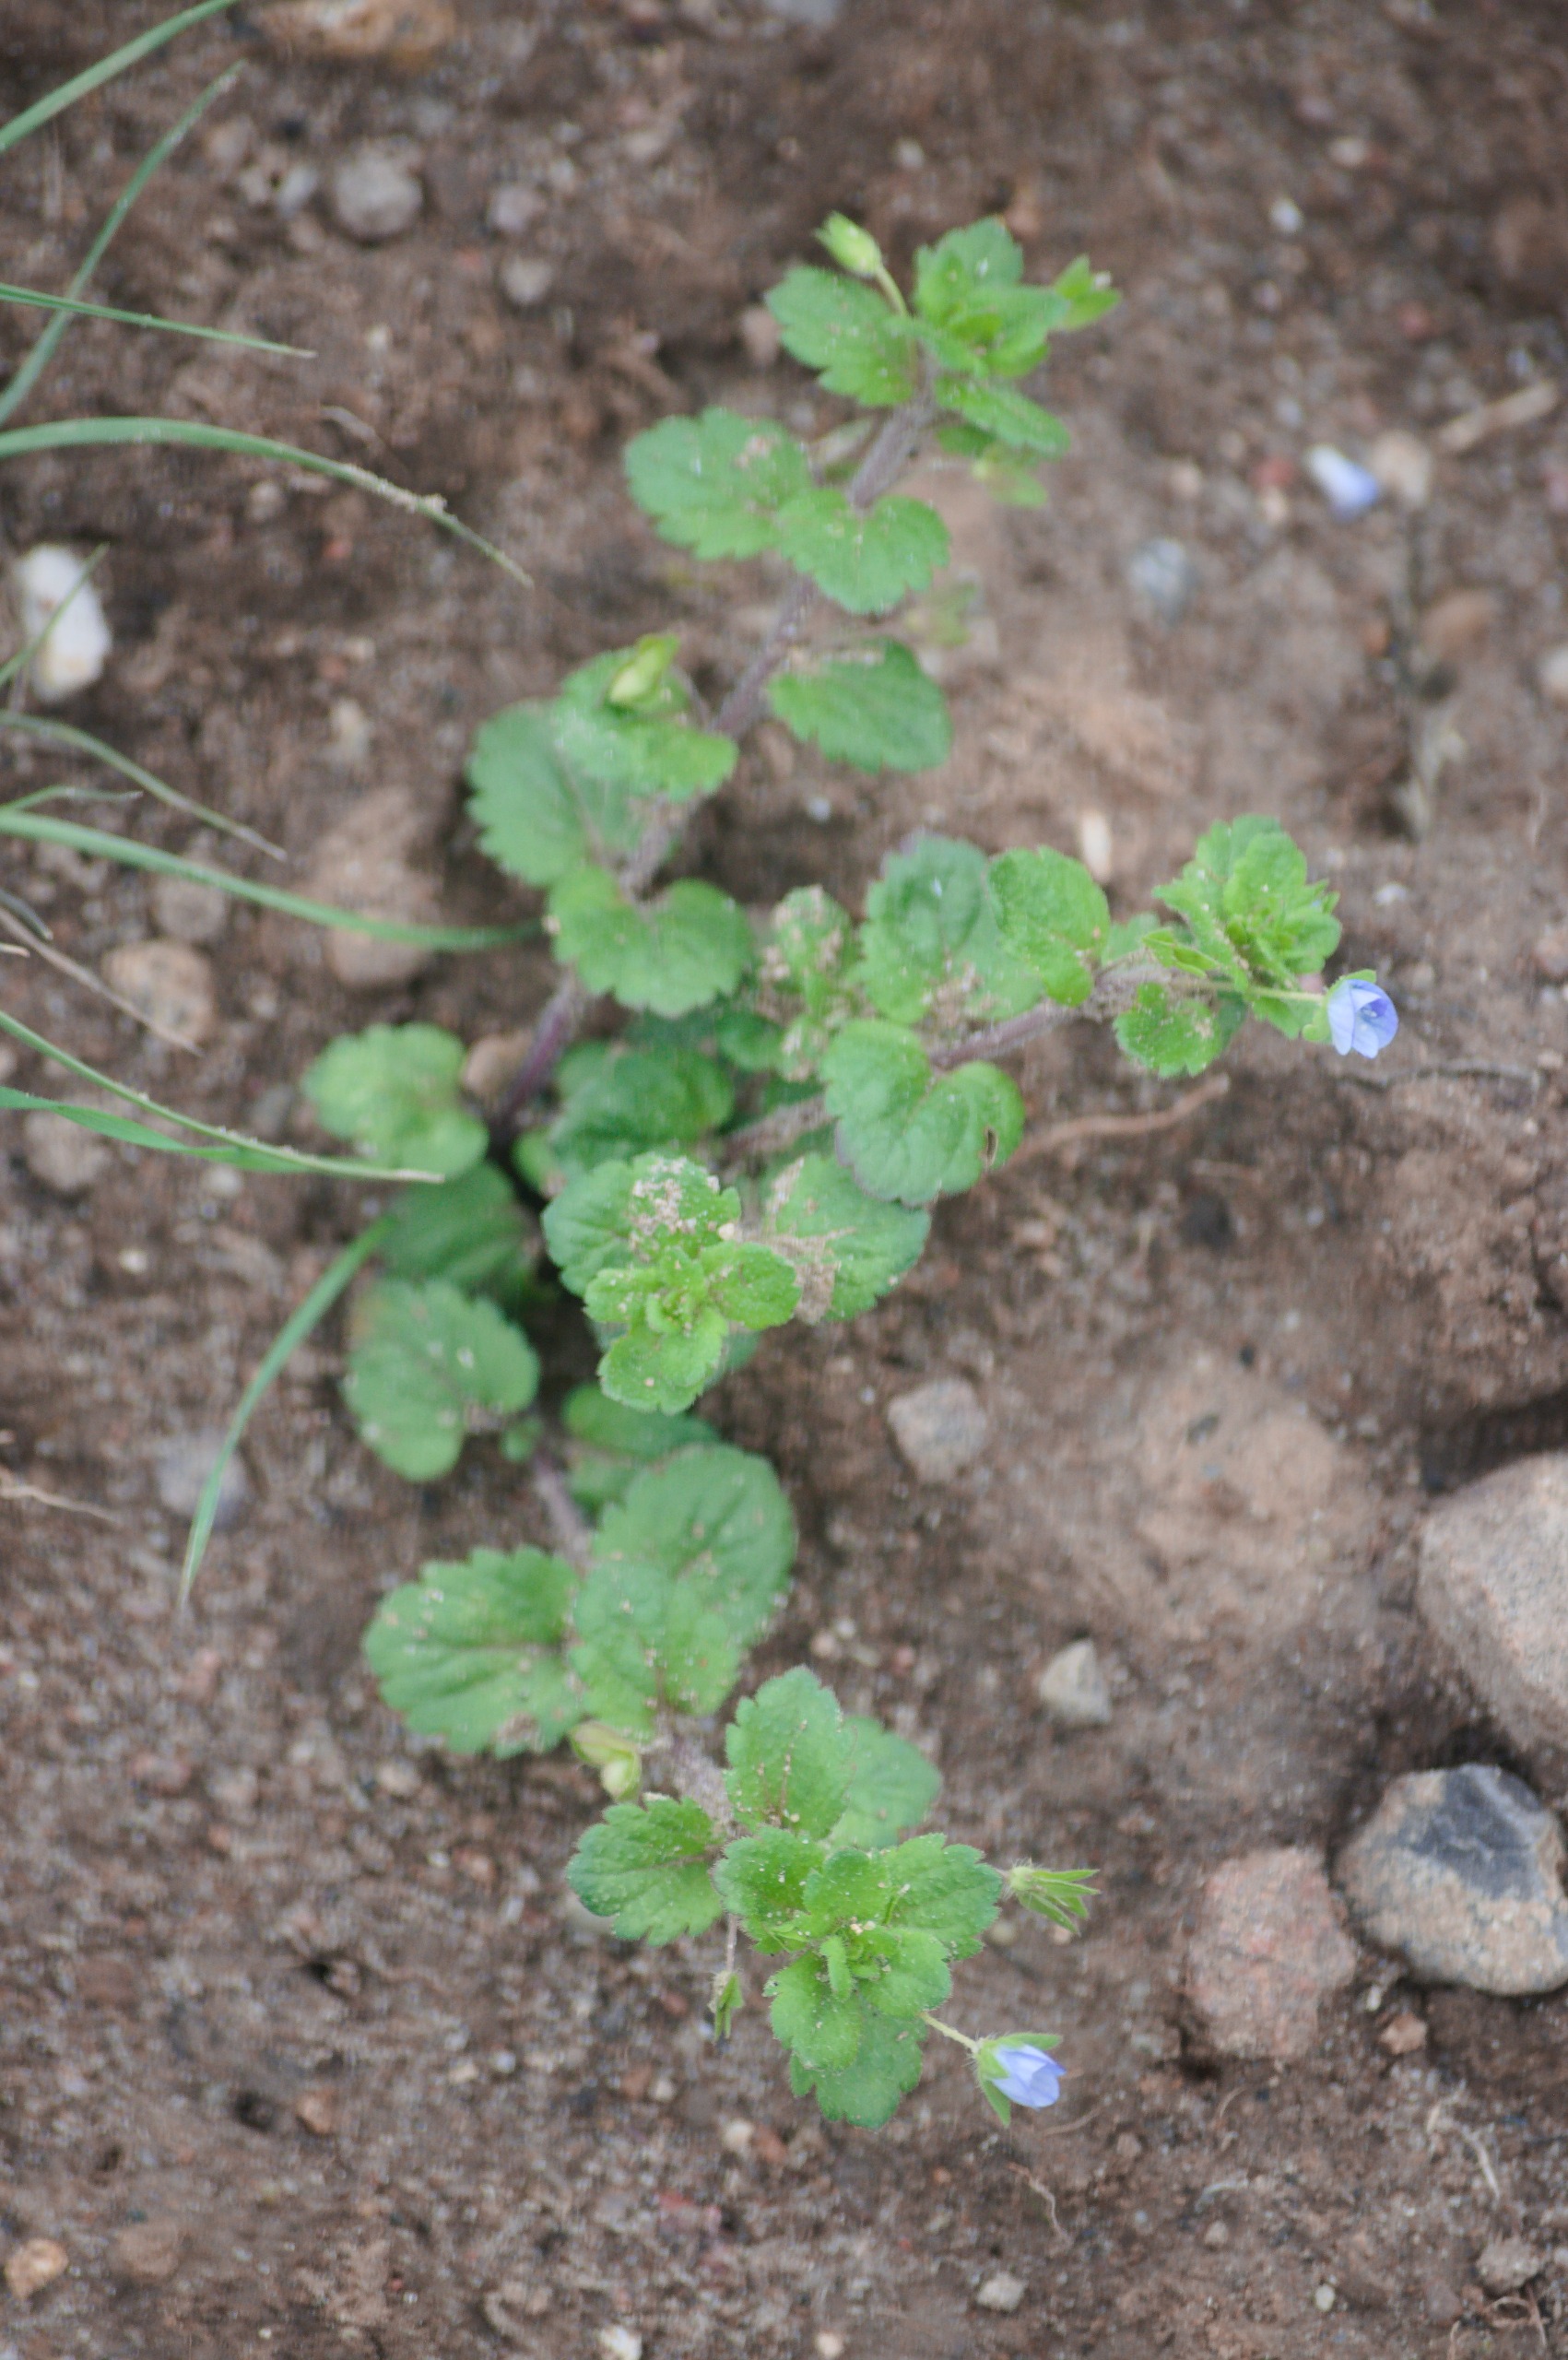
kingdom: Plantae
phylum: Tracheophyta
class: Magnoliopsida
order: Lamiales
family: Plantaginaceae
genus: Veronica
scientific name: Veronica persica
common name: Storkronet ærenpris
